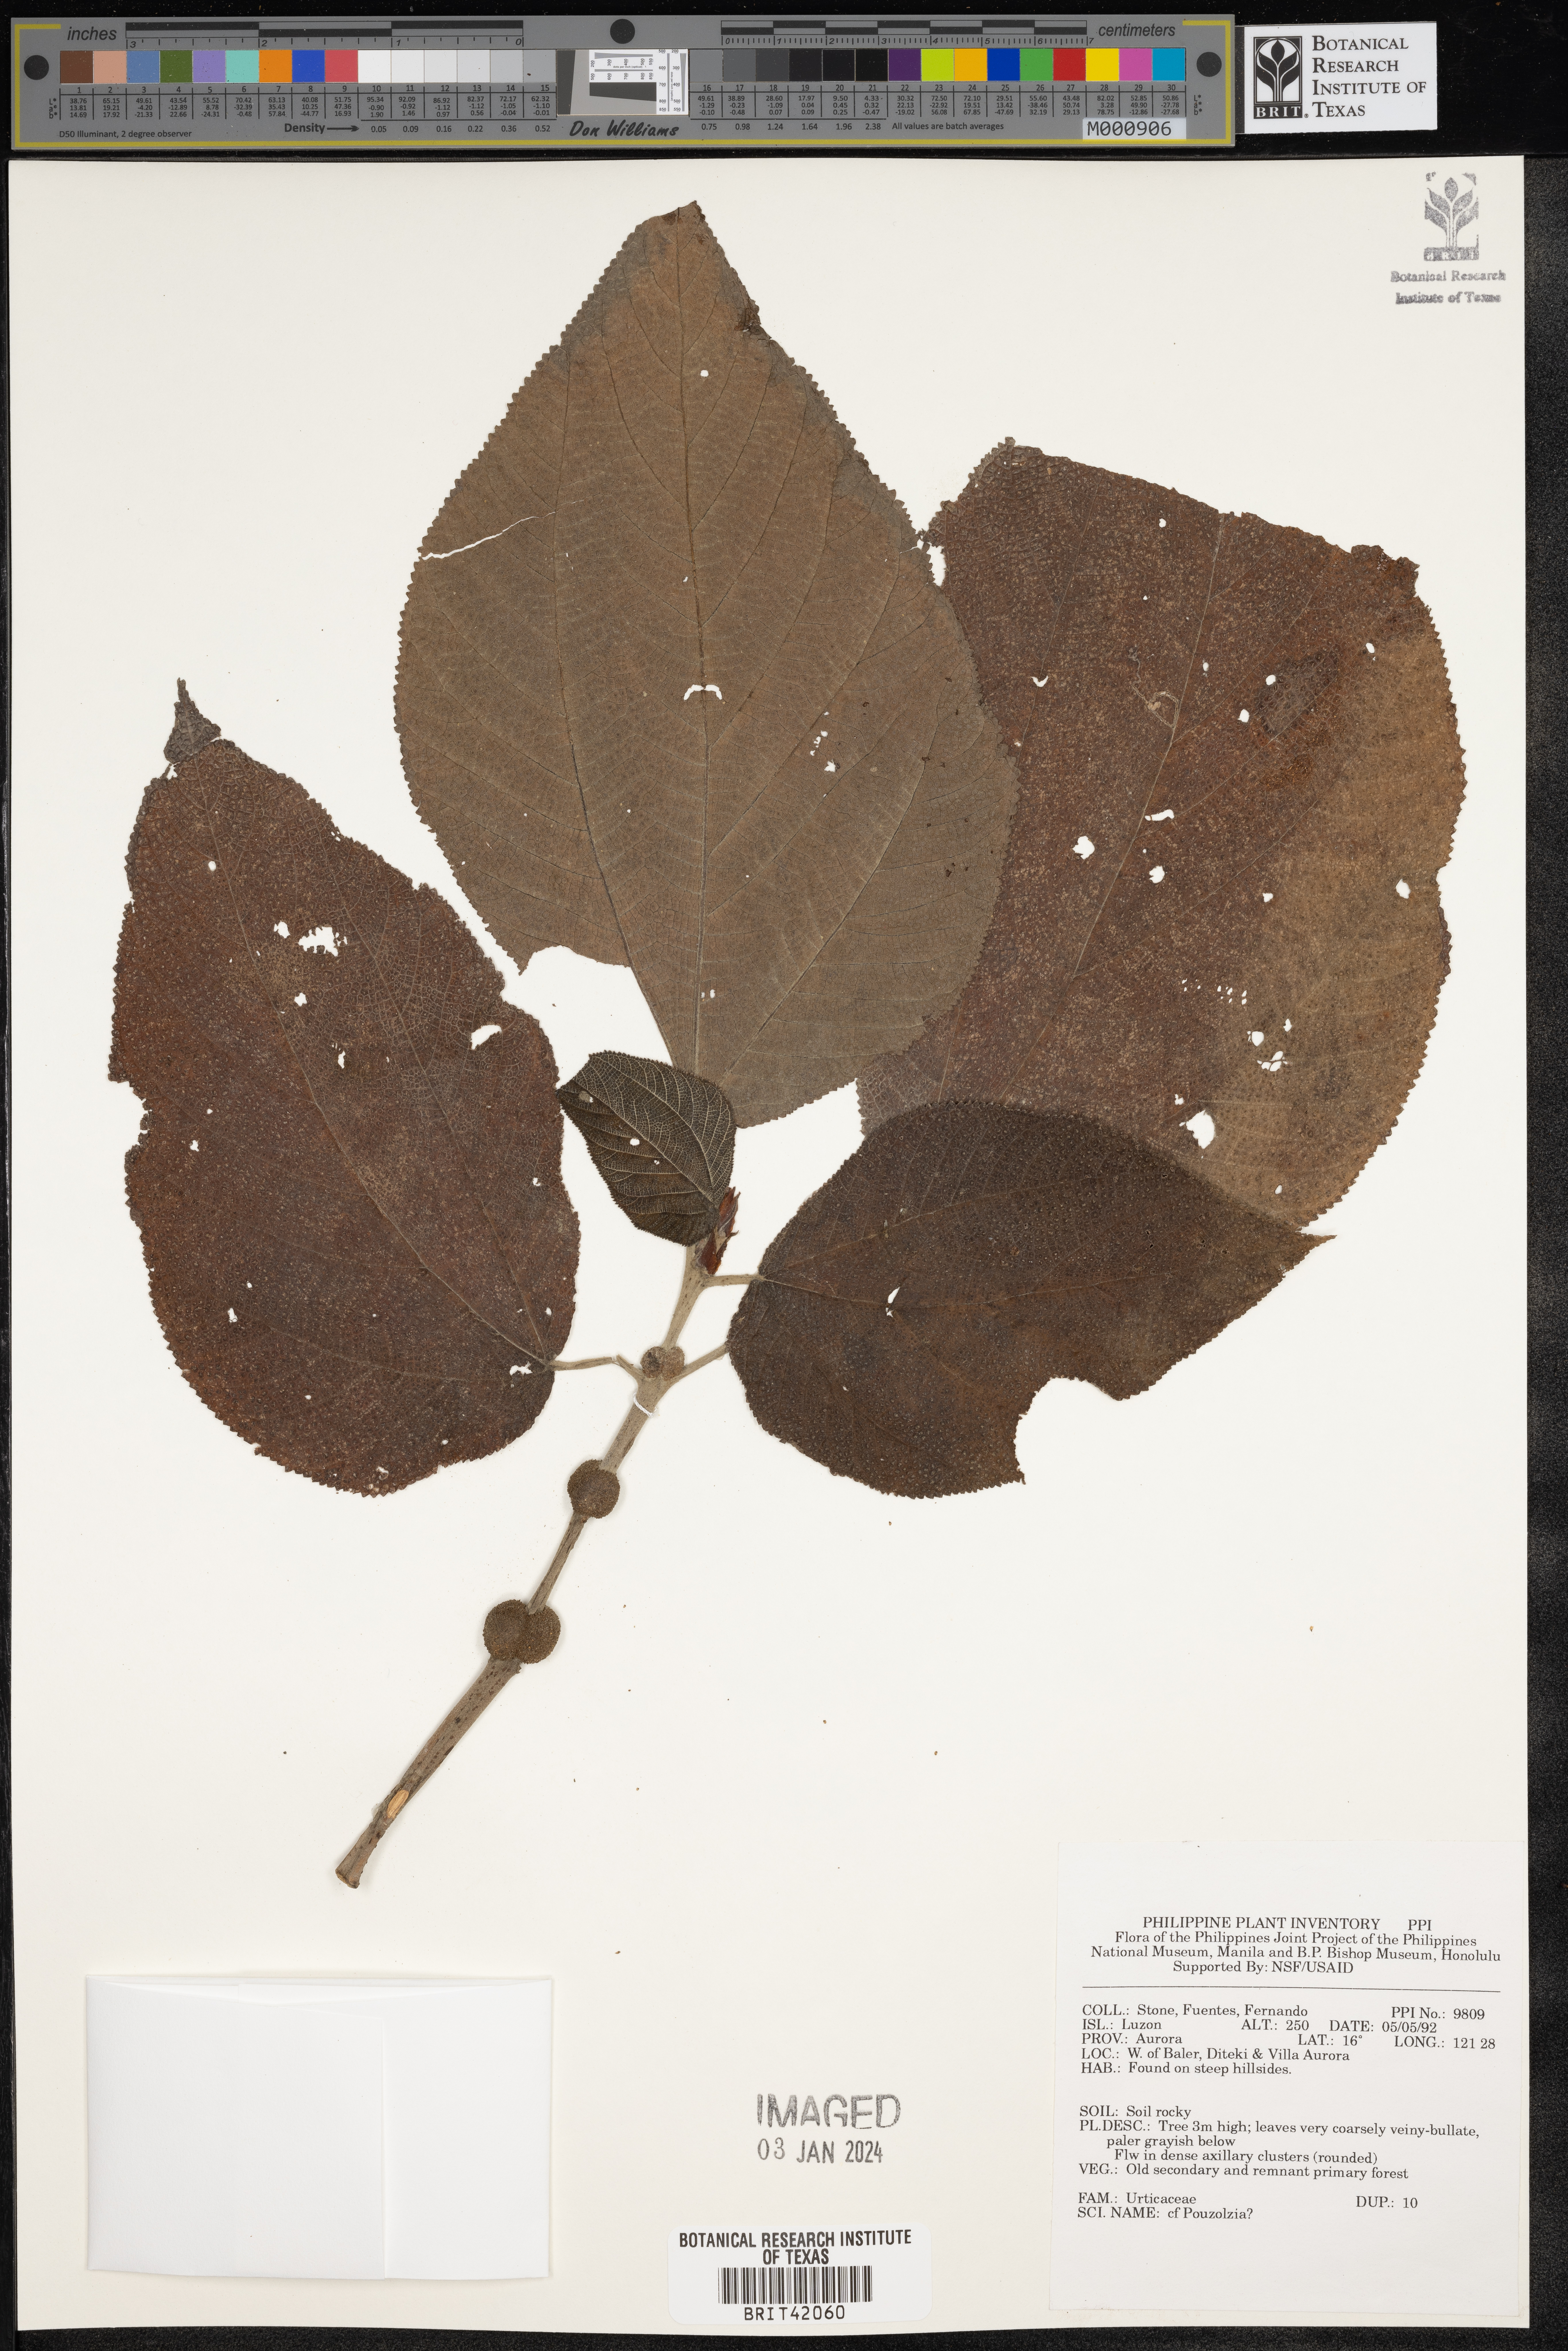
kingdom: Plantae
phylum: Tracheophyta
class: Magnoliopsida
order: Rosales
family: Urticaceae
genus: Pouzolzia
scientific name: Pouzolzia
